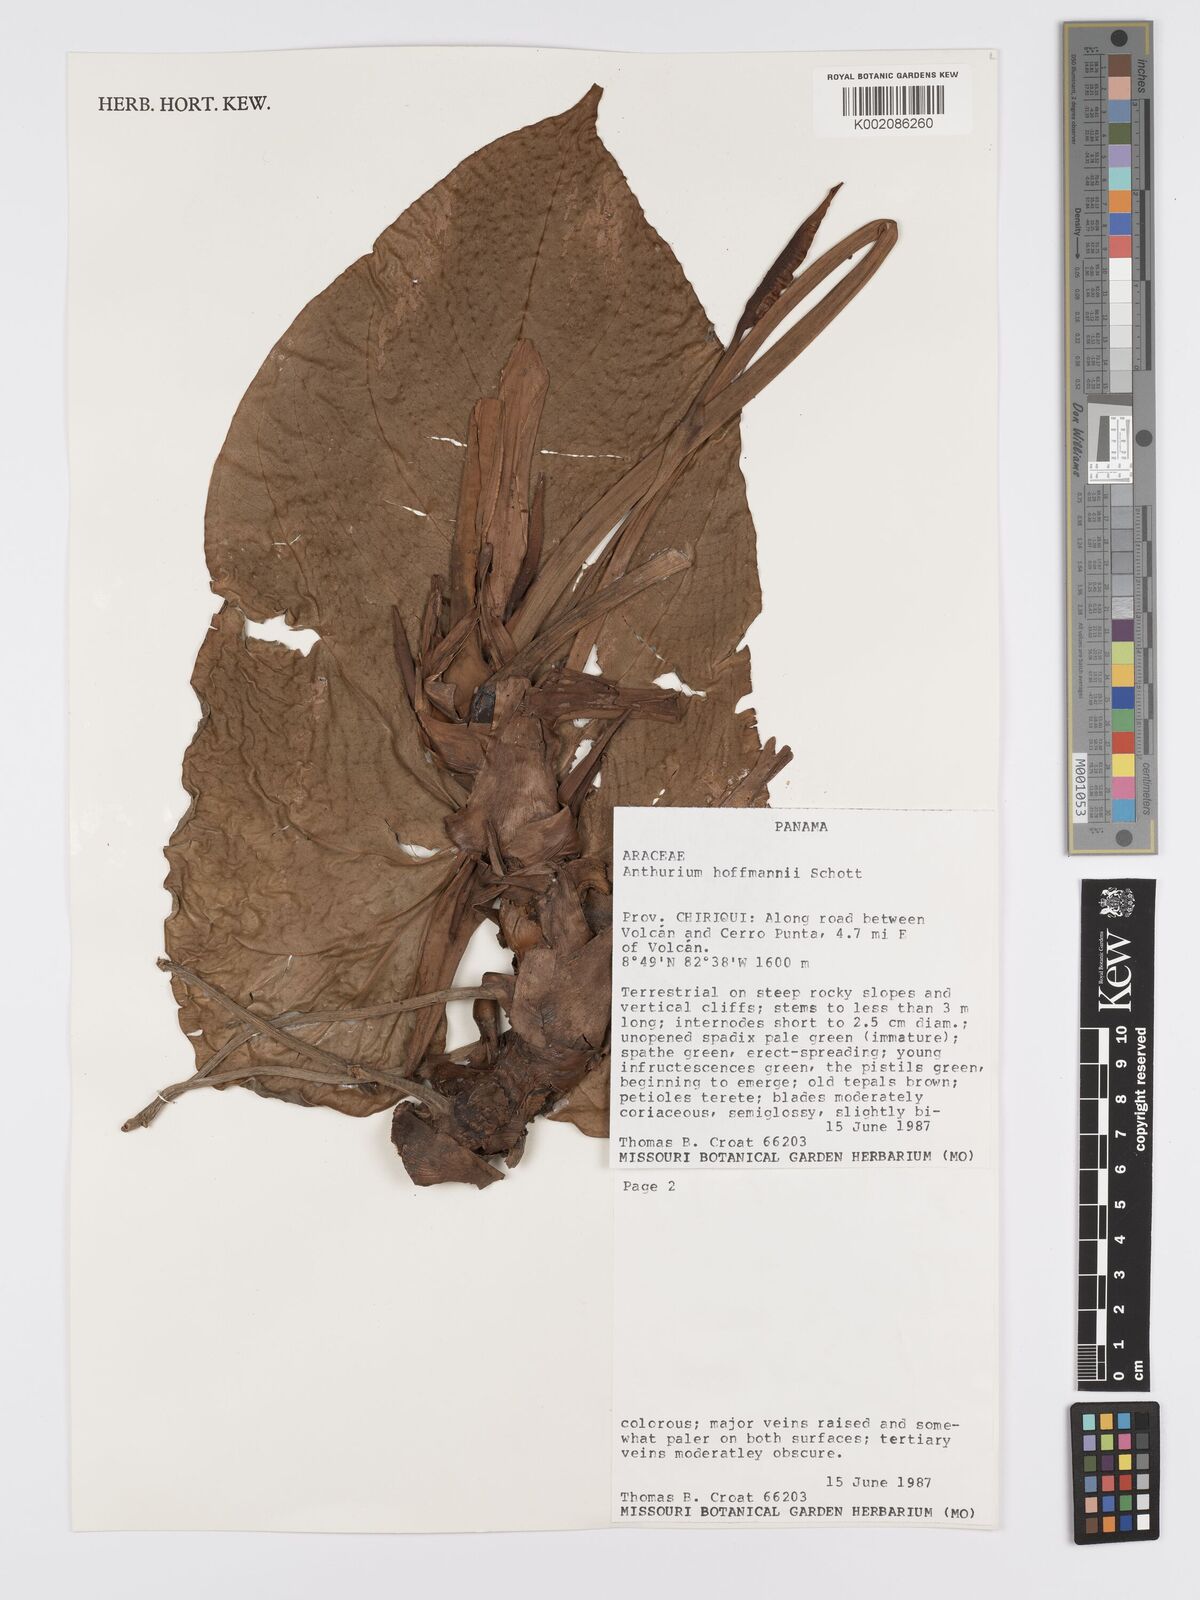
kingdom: Plantae
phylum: Tracheophyta
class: Liliopsida
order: Alismatales
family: Araceae
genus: Anthurium
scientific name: Anthurium hoffmannii
